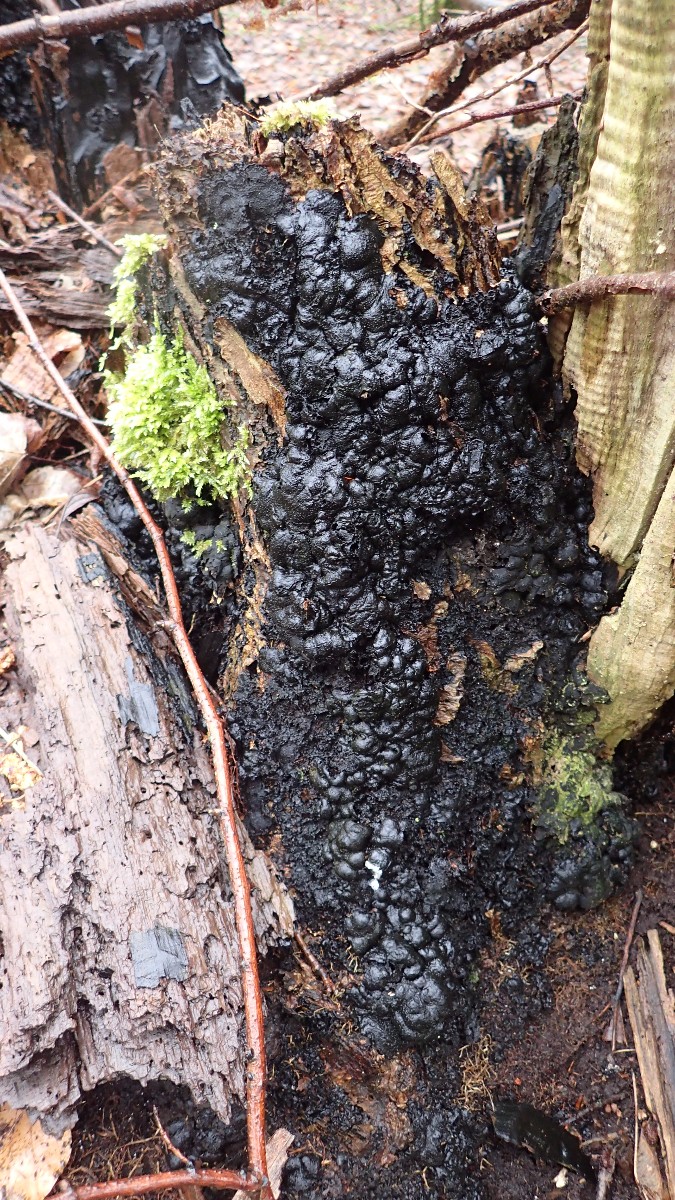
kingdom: Fungi
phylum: Ascomycota
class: Sordariomycetes
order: Xylariales
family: Xylariaceae
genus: Kretzschmaria
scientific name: Kretzschmaria deusta
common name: stor kulsvamp
